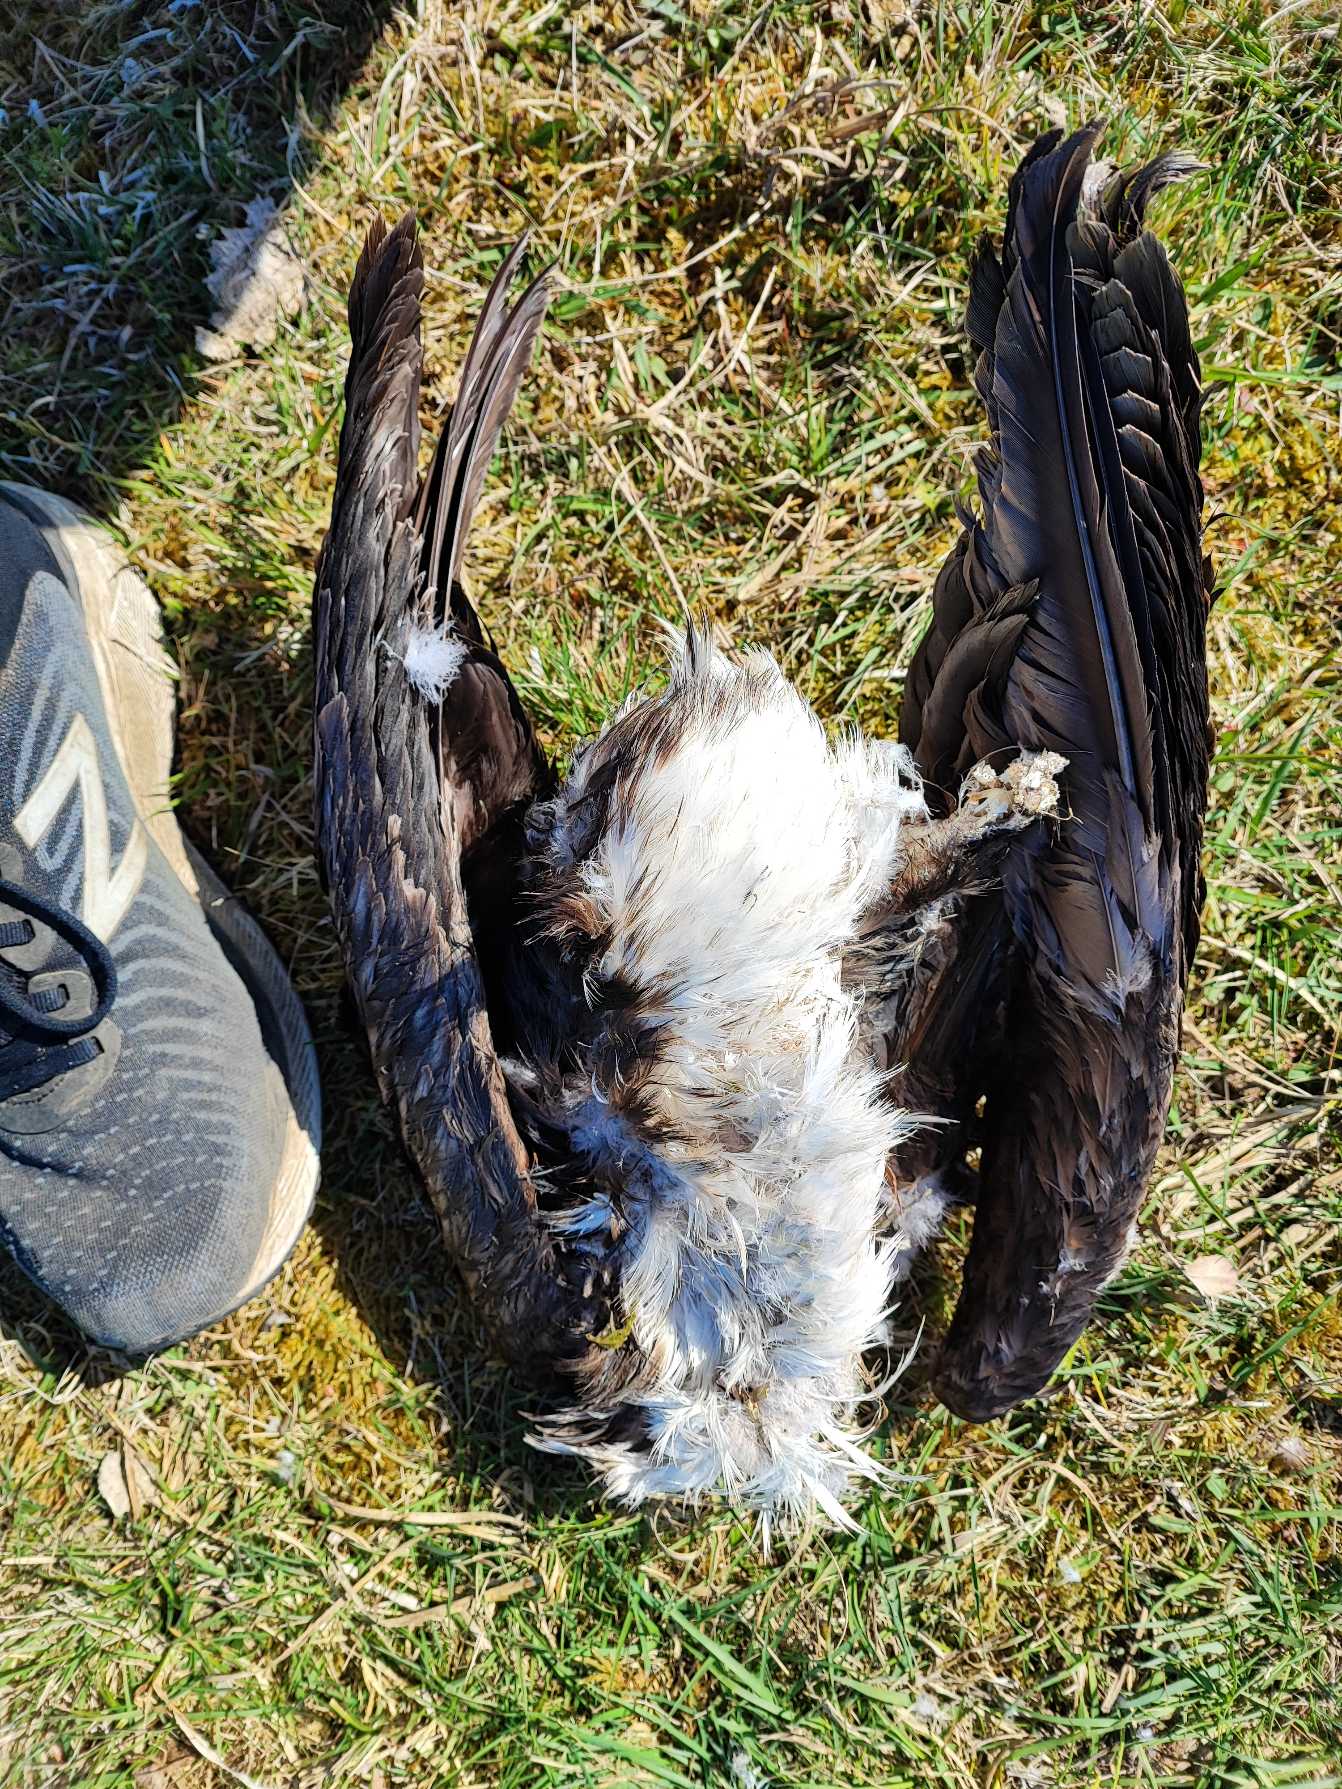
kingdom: Animalia
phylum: Chordata
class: Aves
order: Suliformes
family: Phalacrocoracidae
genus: Phalacrocorax
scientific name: Phalacrocorax carbo
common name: Skarv
